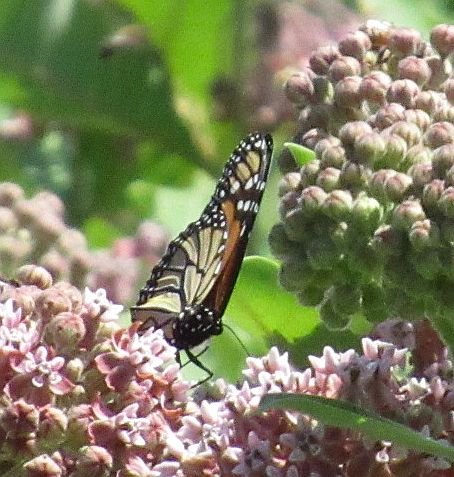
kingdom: Animalia
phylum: Arthropoda
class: Insecta
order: Lepidoptera
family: Nymphalidae
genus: Danaus
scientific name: Danaus plexippus
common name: Monarch
